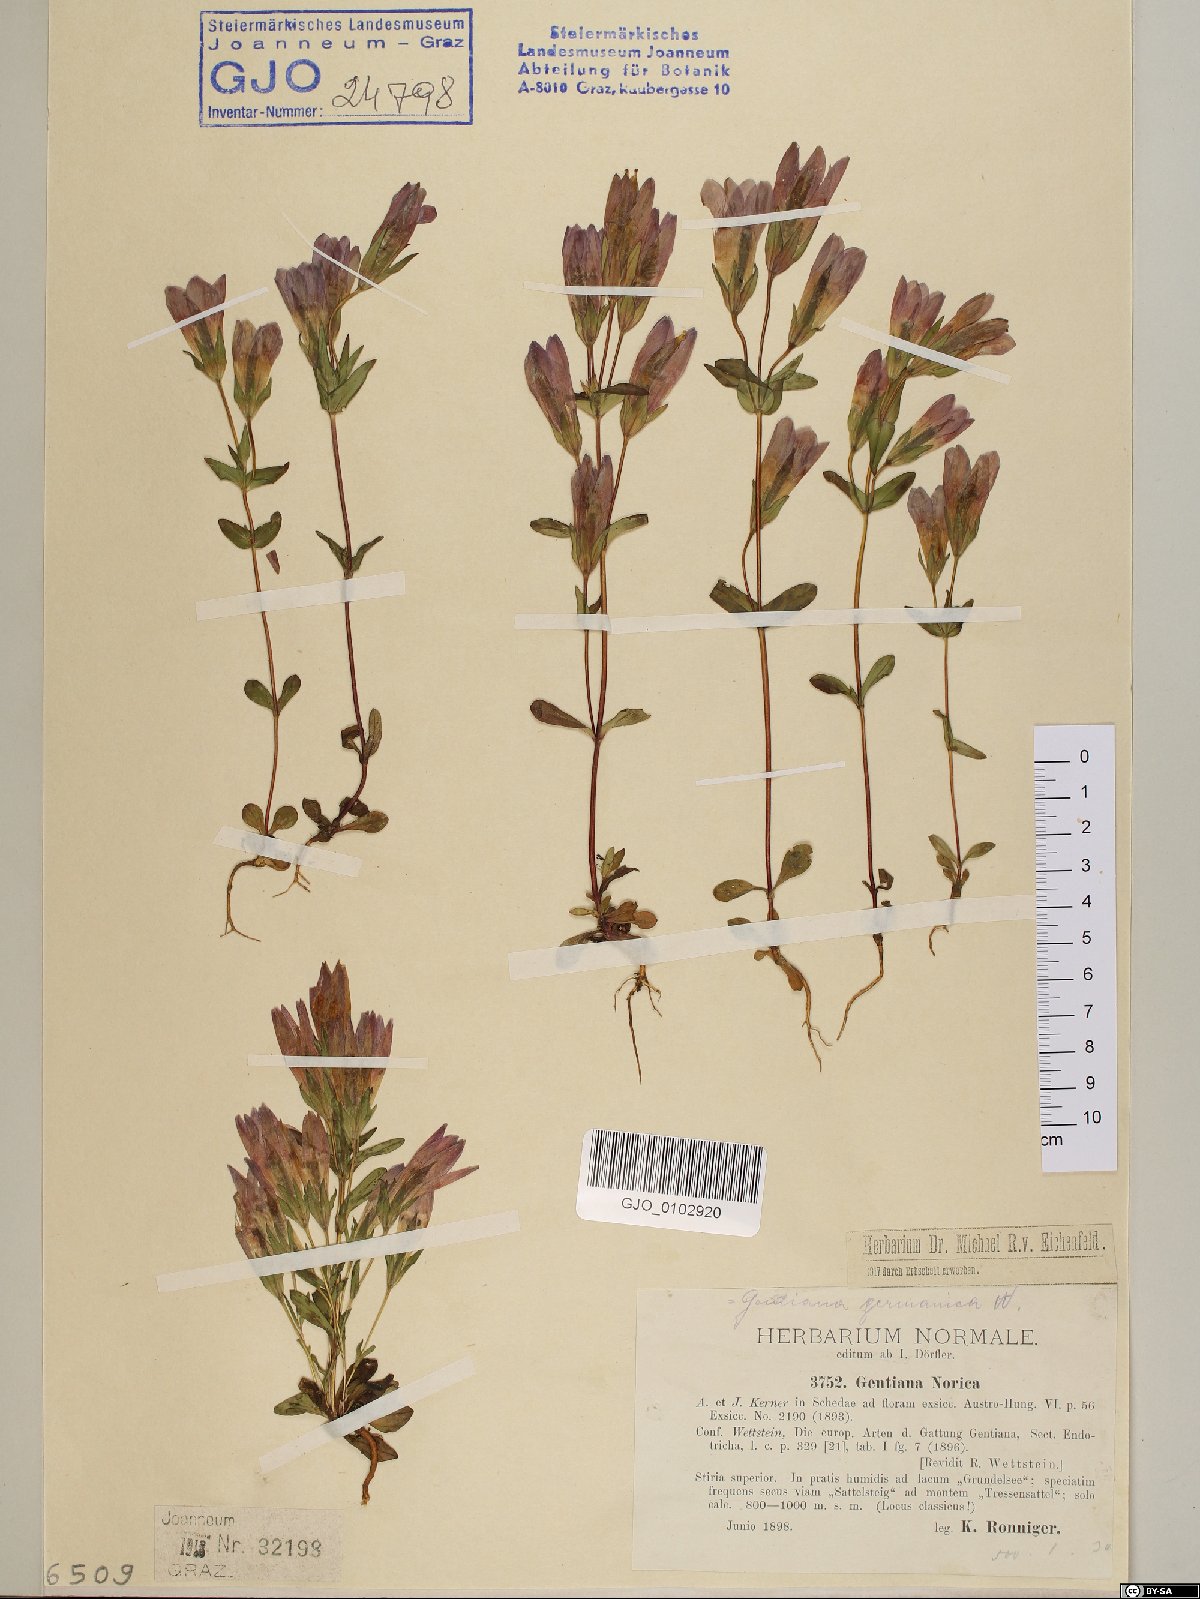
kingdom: Plantae
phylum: Tracheophyta
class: Magnoliopsida
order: Gentianales
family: Gentianaceae
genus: Gentianella
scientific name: Gentianella obtusifolia
